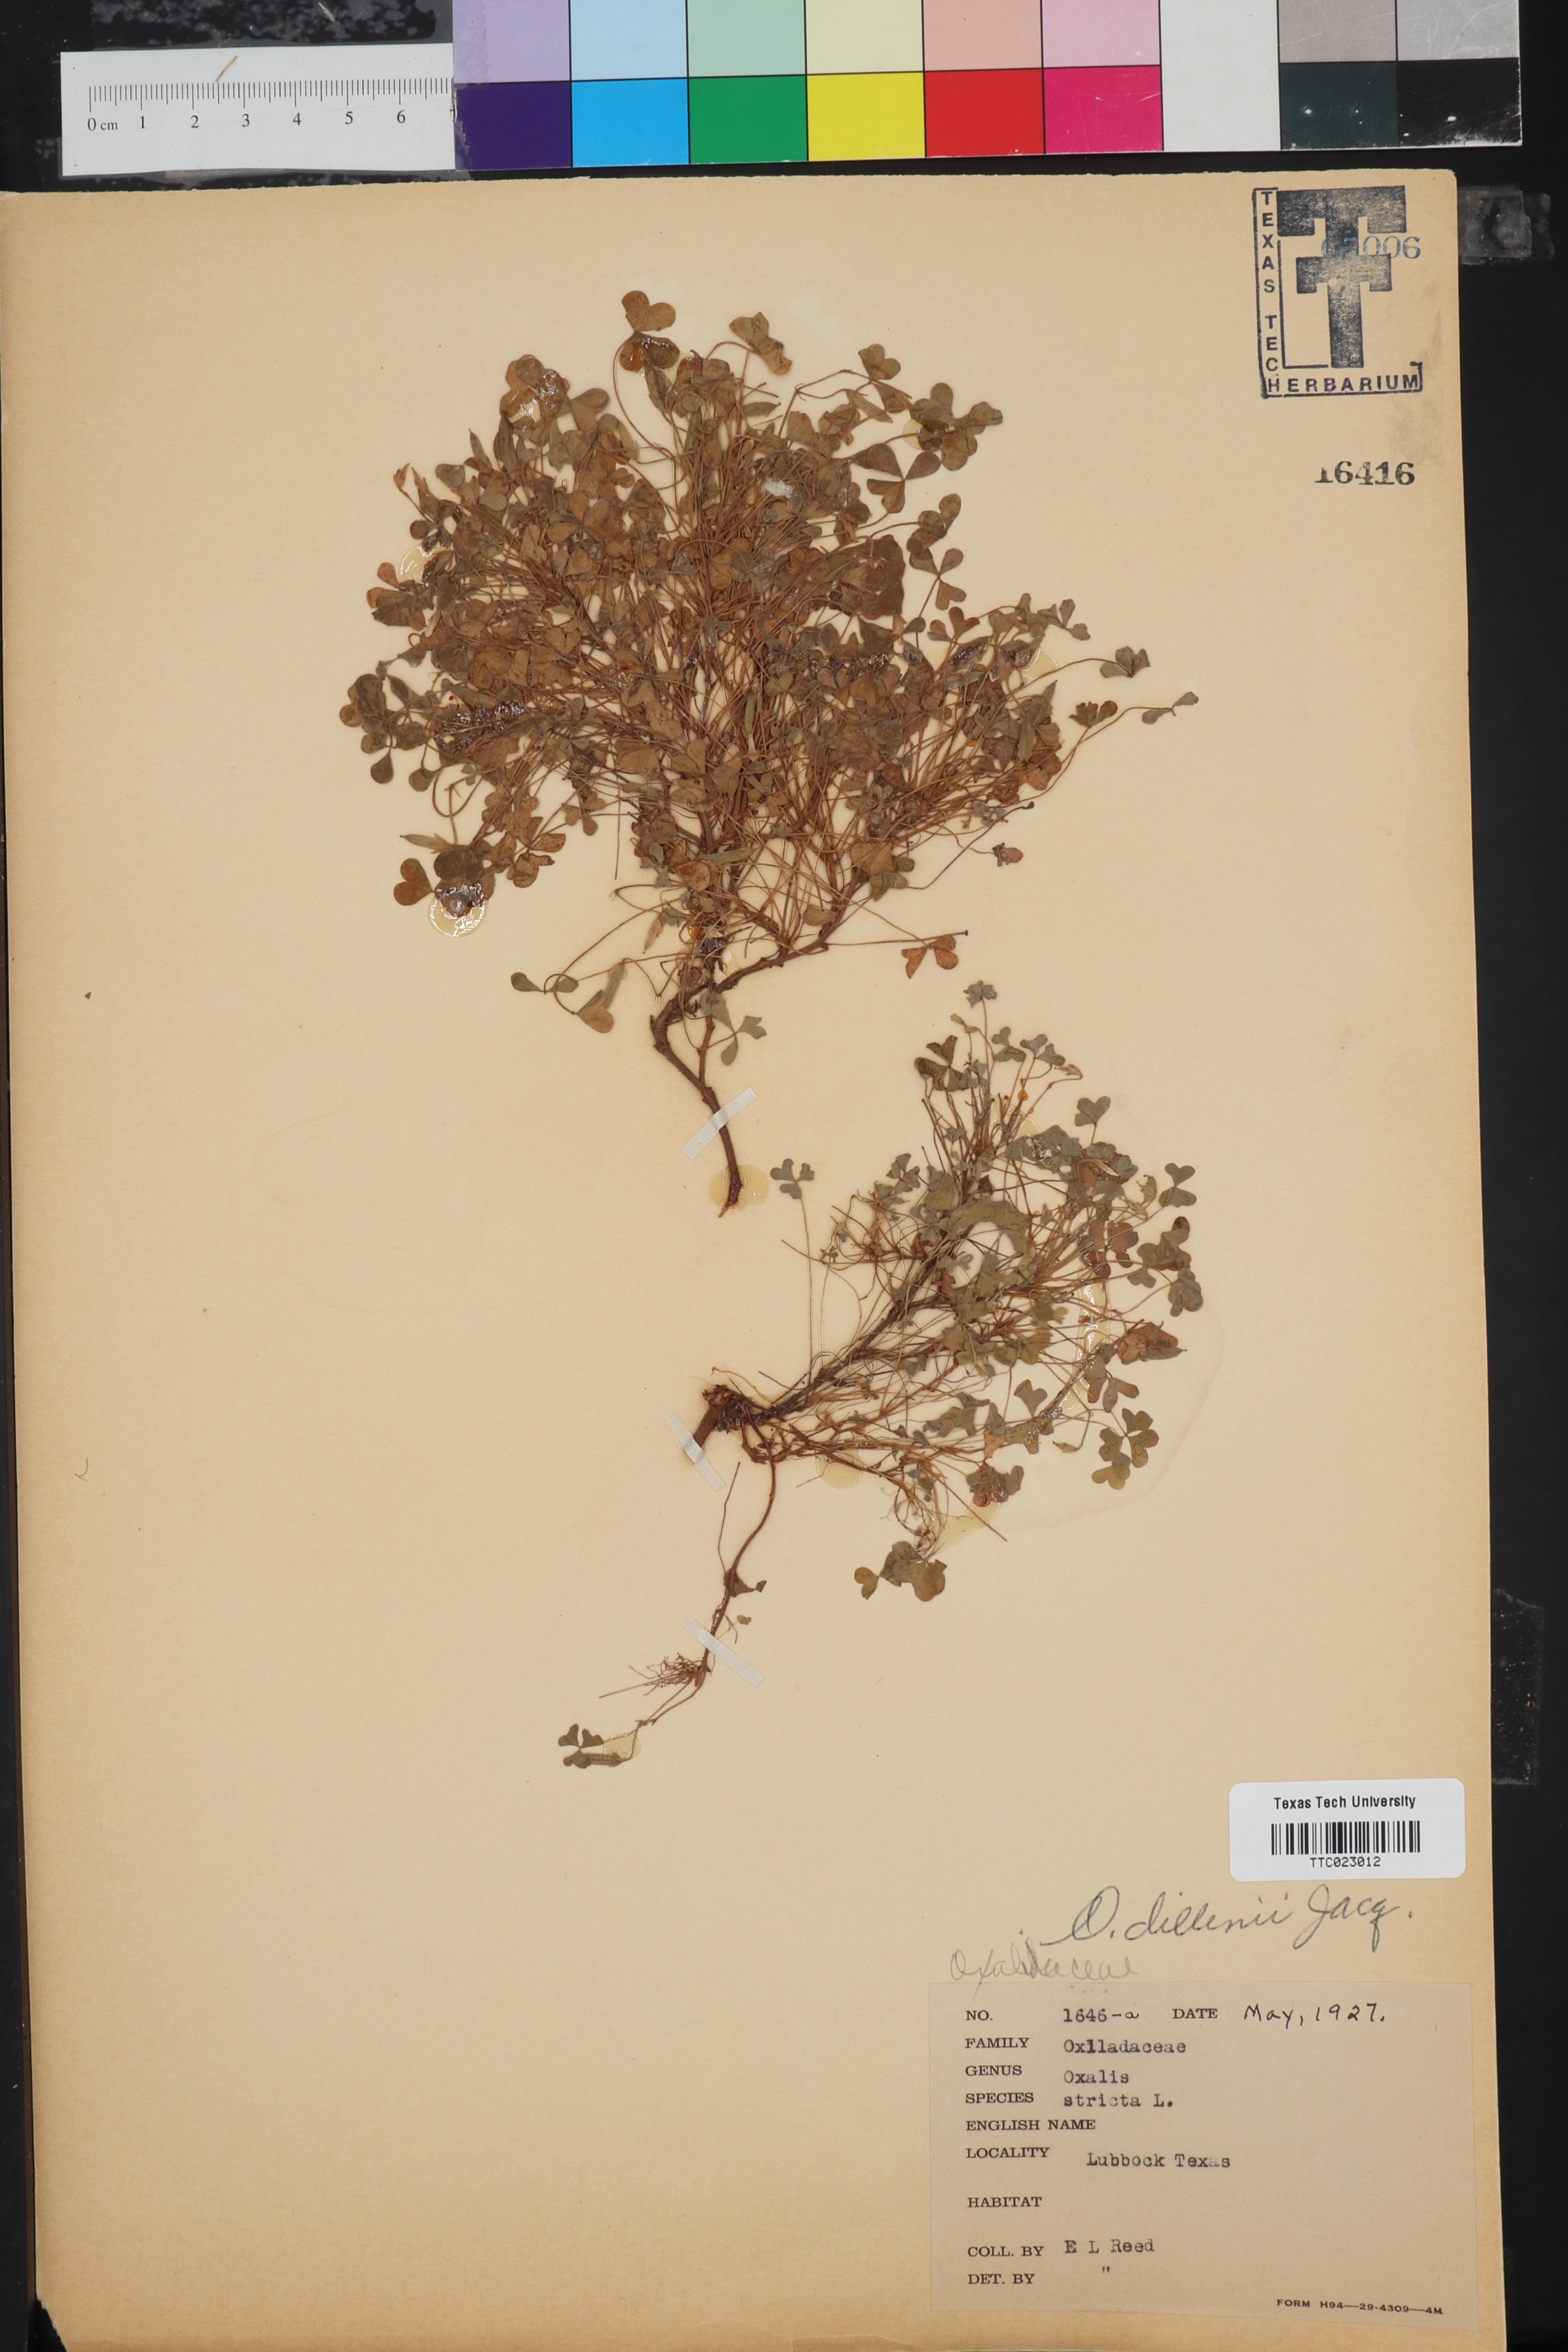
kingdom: Plantae
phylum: Tracheophyta
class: Magnoliopsida
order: Oxalidales
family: Oxalidaceae
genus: Oxalis
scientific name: Oxalis dillenii
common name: Sussex yellow-sorrel
